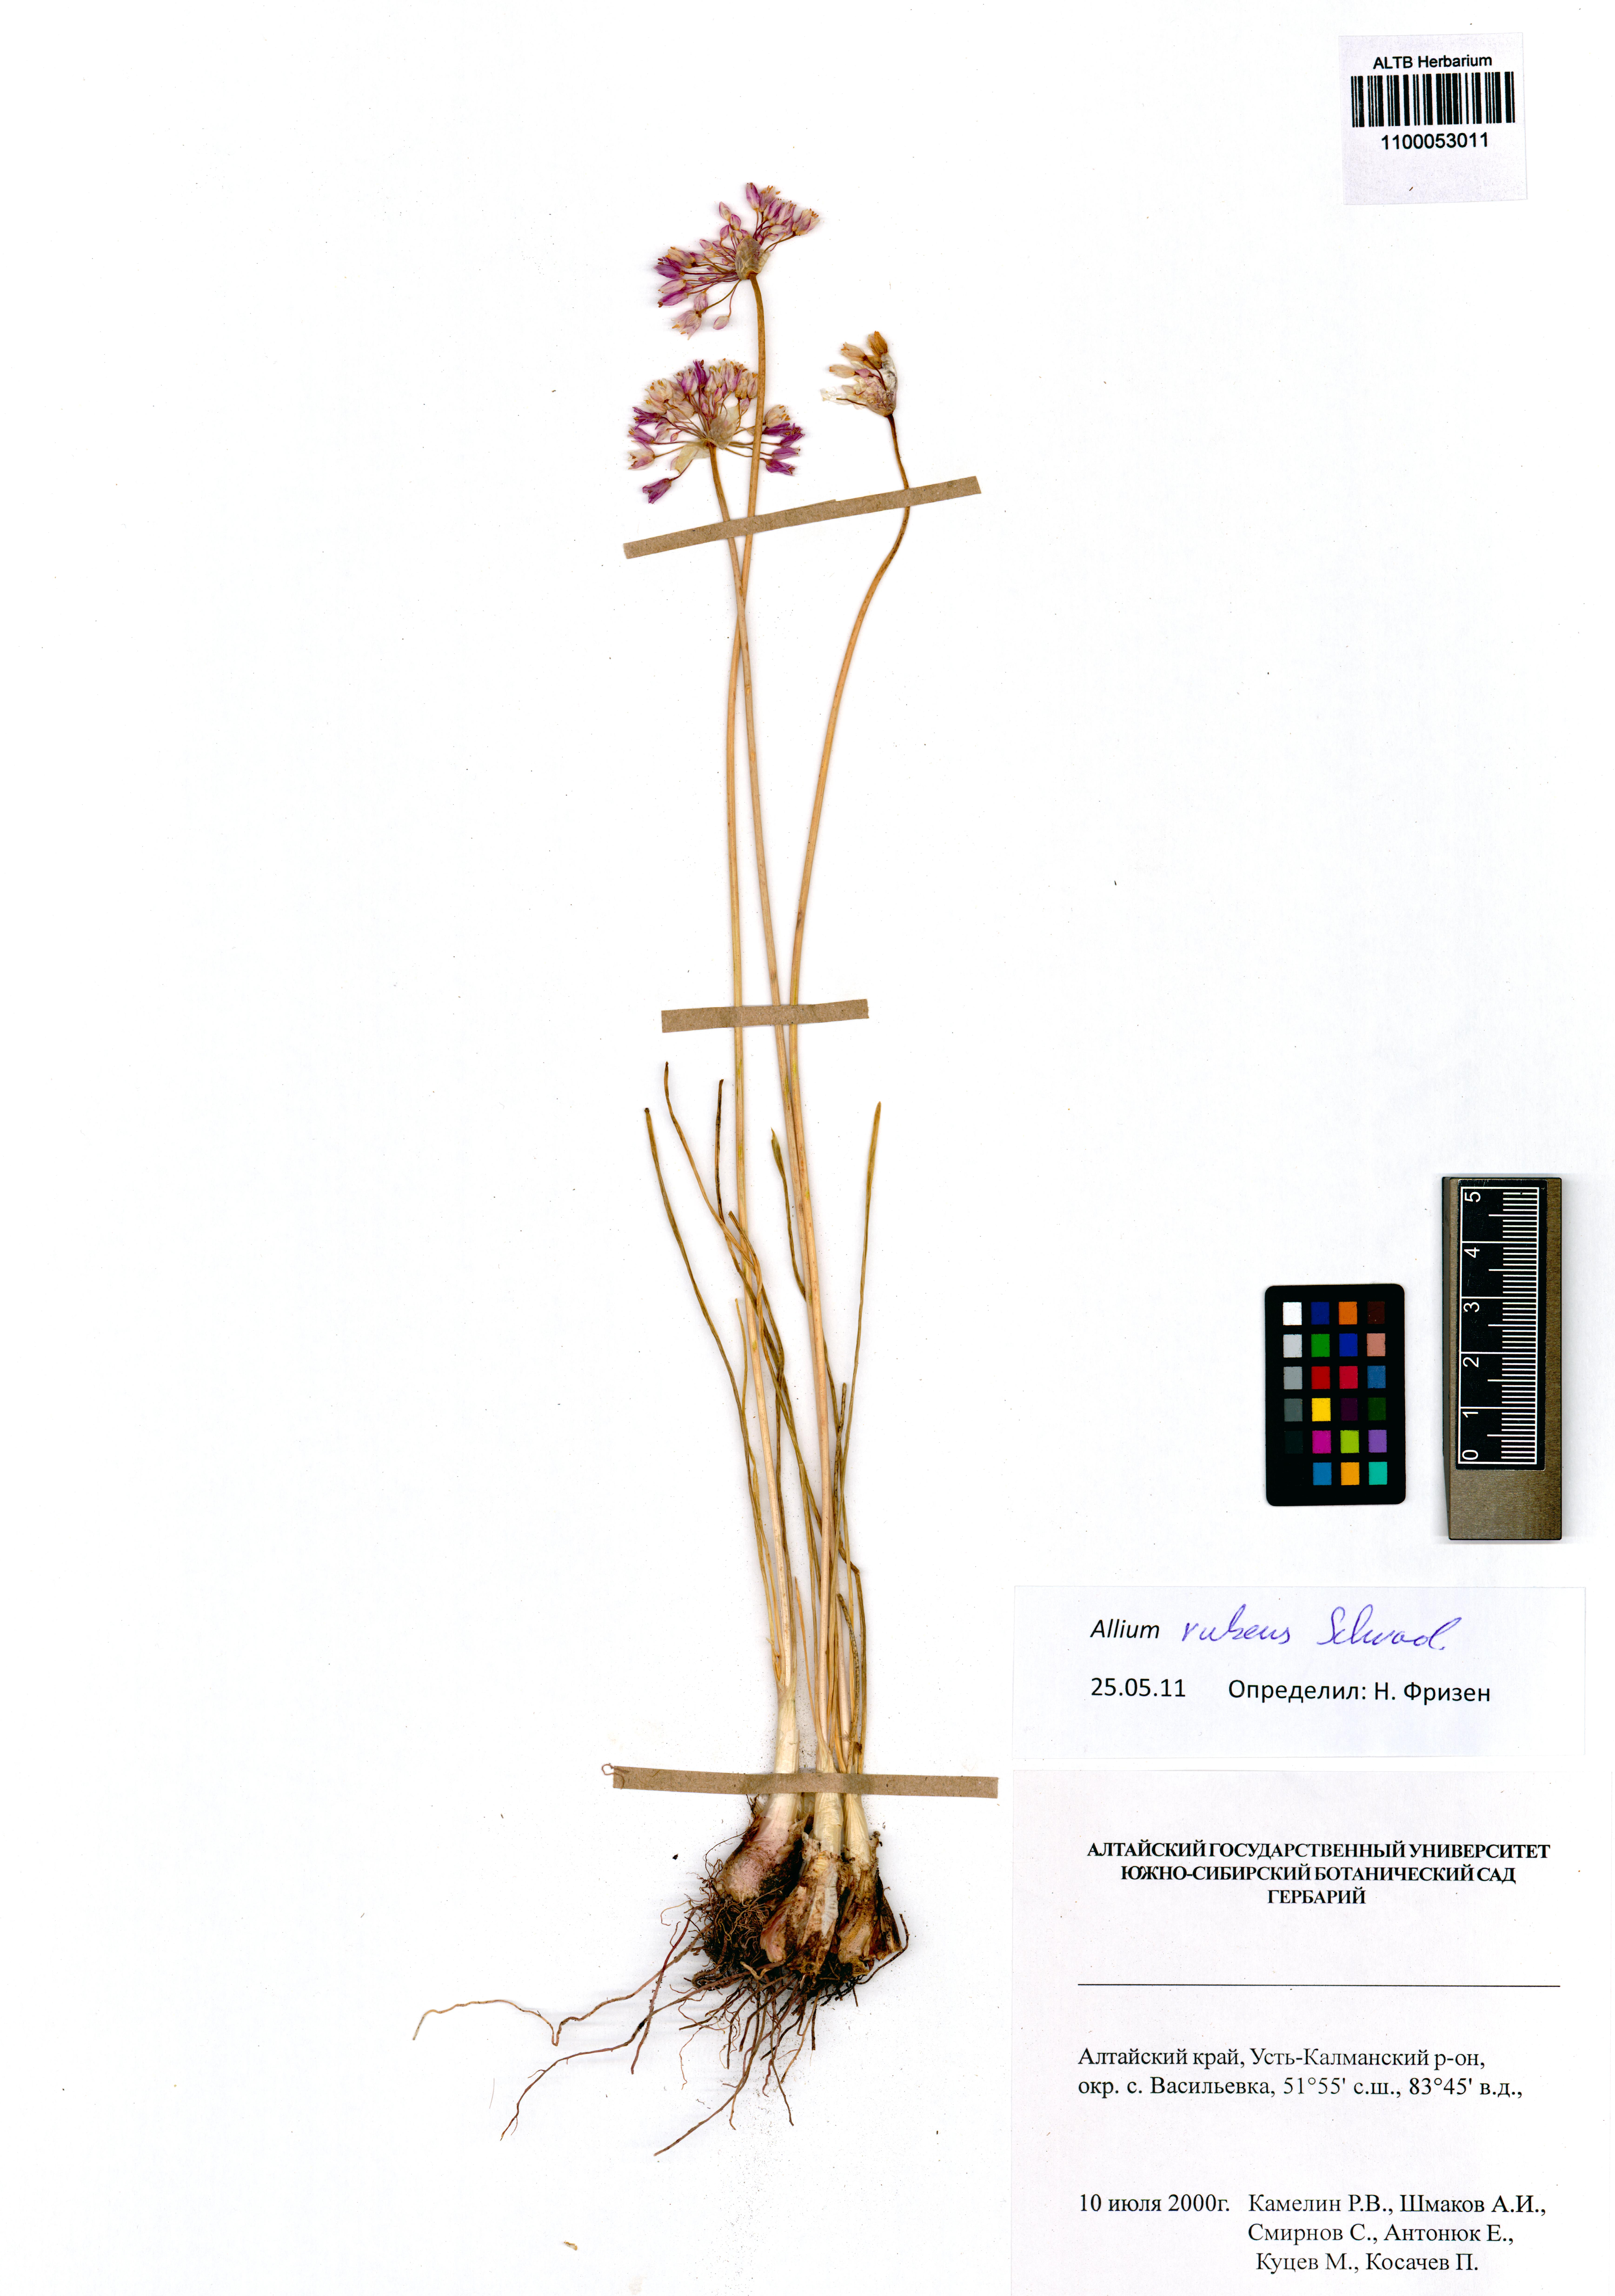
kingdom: Plantae
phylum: Tracheophyta
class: Liliopsida
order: Asparagales
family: Amaryllidaceae
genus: Allium
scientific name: Allium rubens
